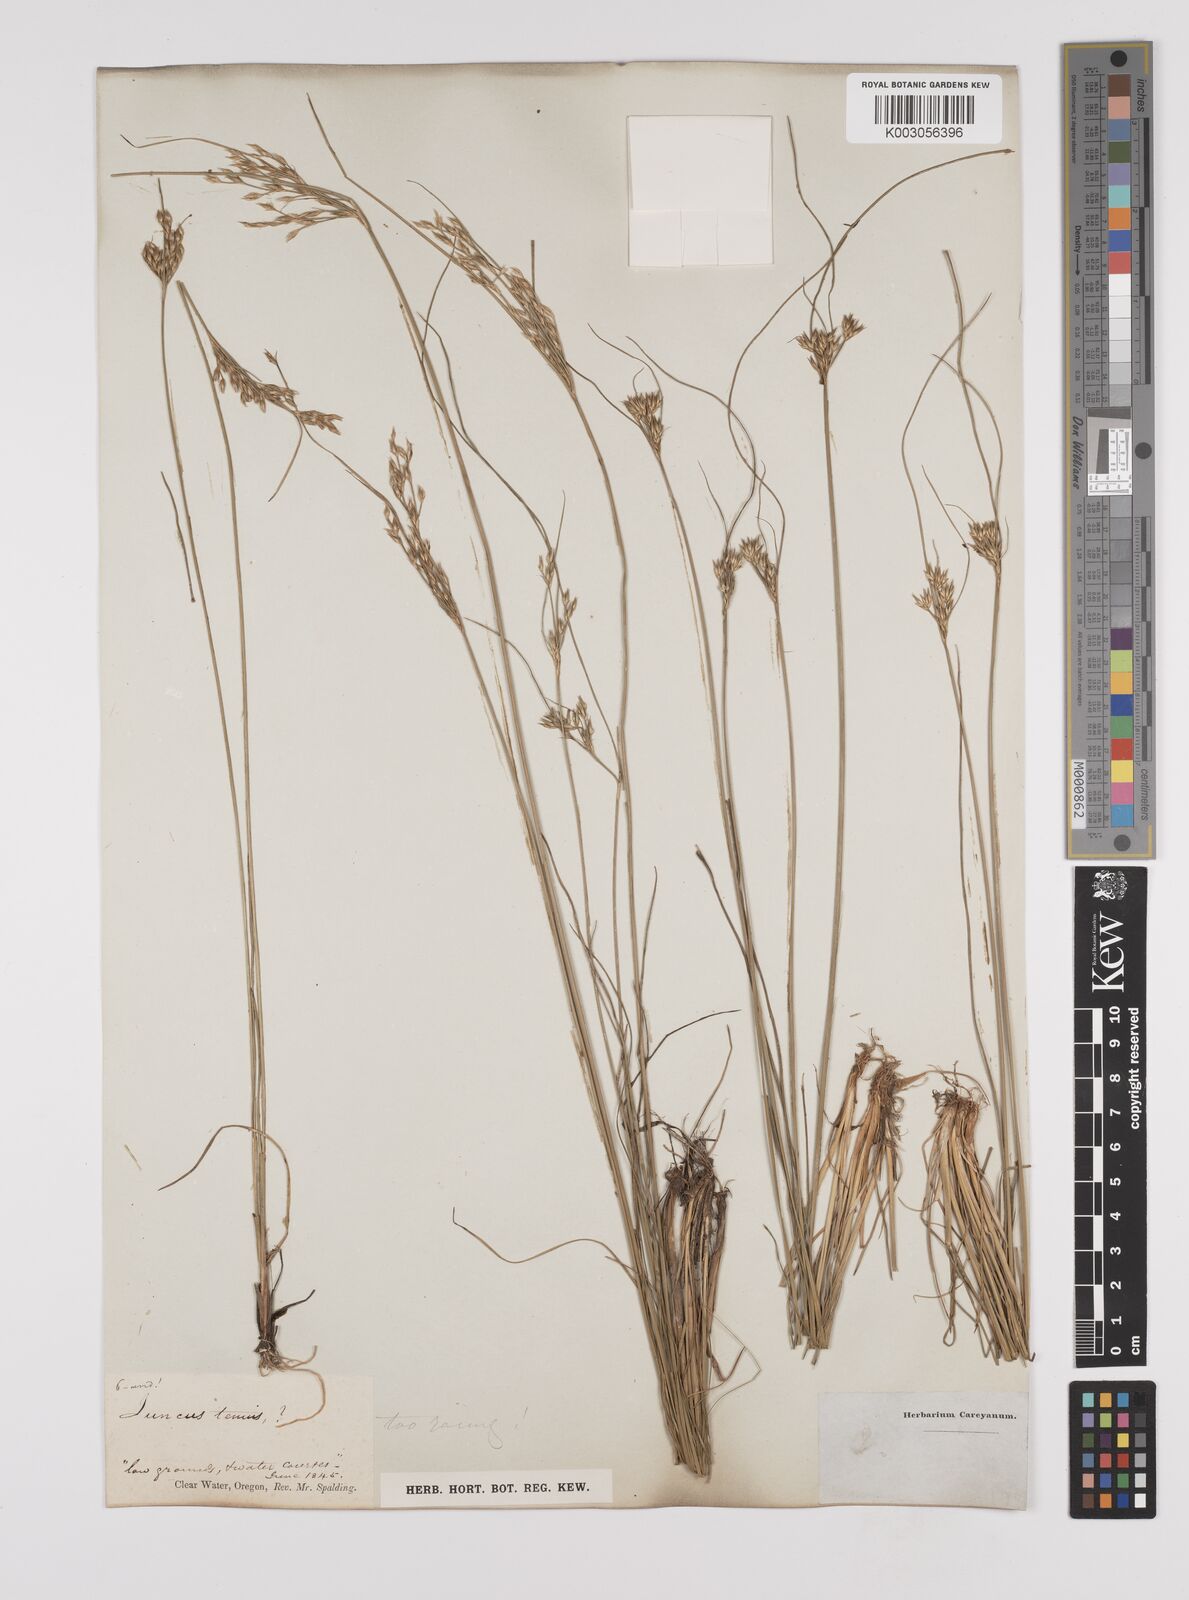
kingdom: Plantae
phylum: Tracheophyta
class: Liliopsida
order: Poales
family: Juncaceae
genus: Juncus
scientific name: Juncus tenuis
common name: Slender rush
